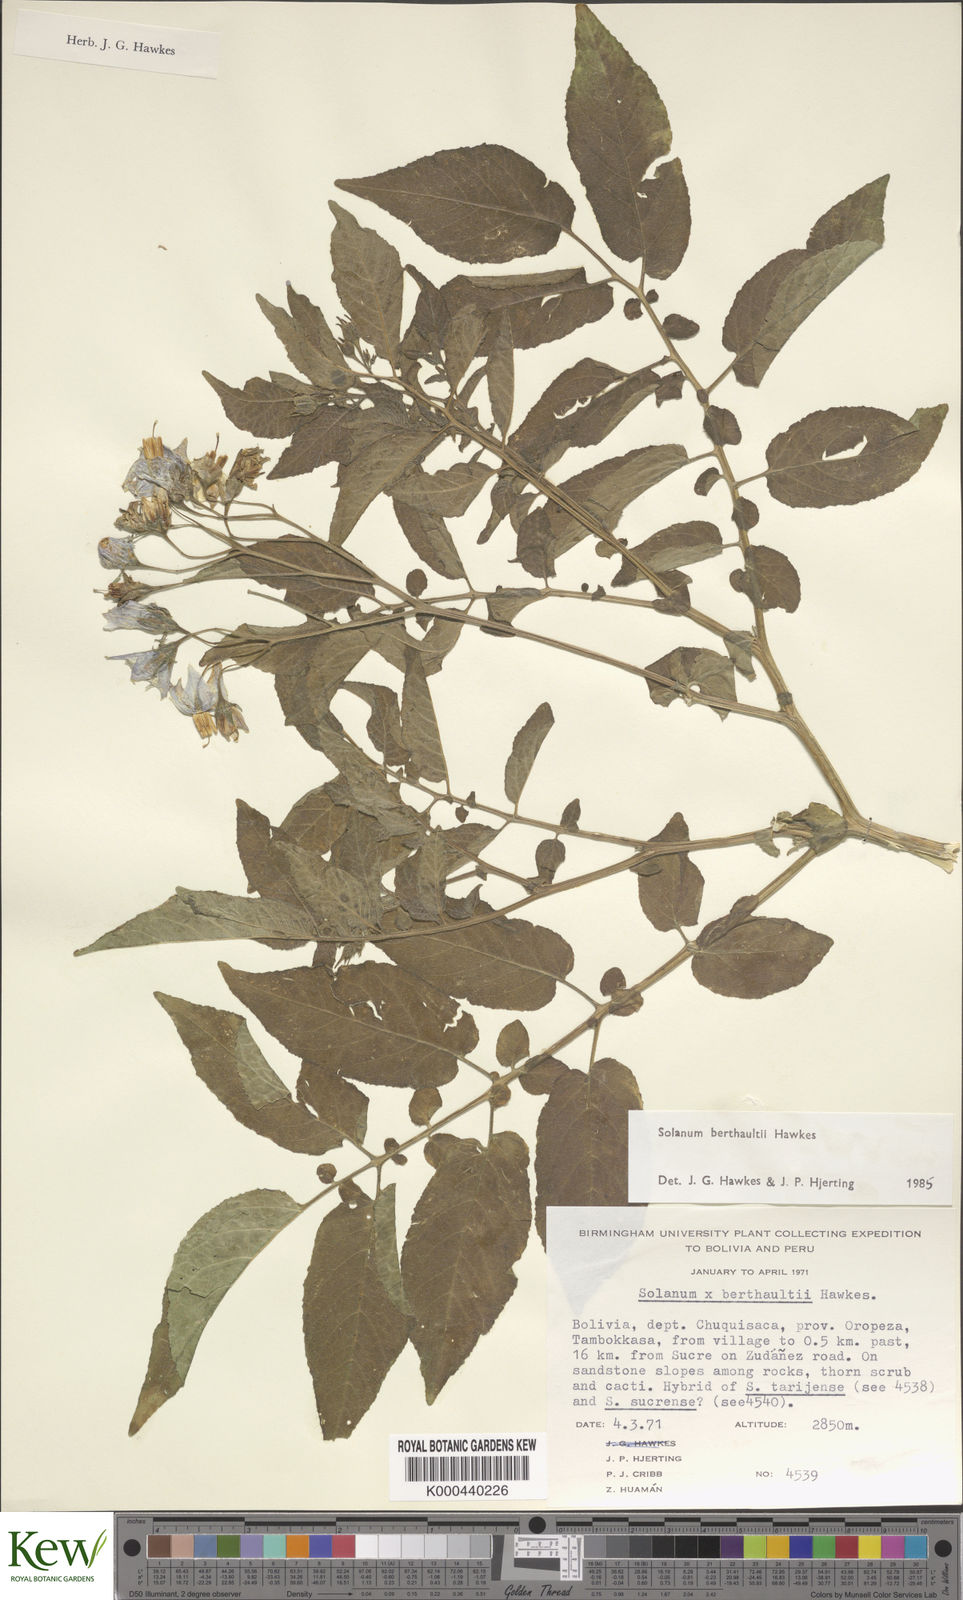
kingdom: Plantae
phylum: Tracheophyta
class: Magnoliopsida
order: Solanales
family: Solanaceae
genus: Solanum
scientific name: Solanum berthaultii
